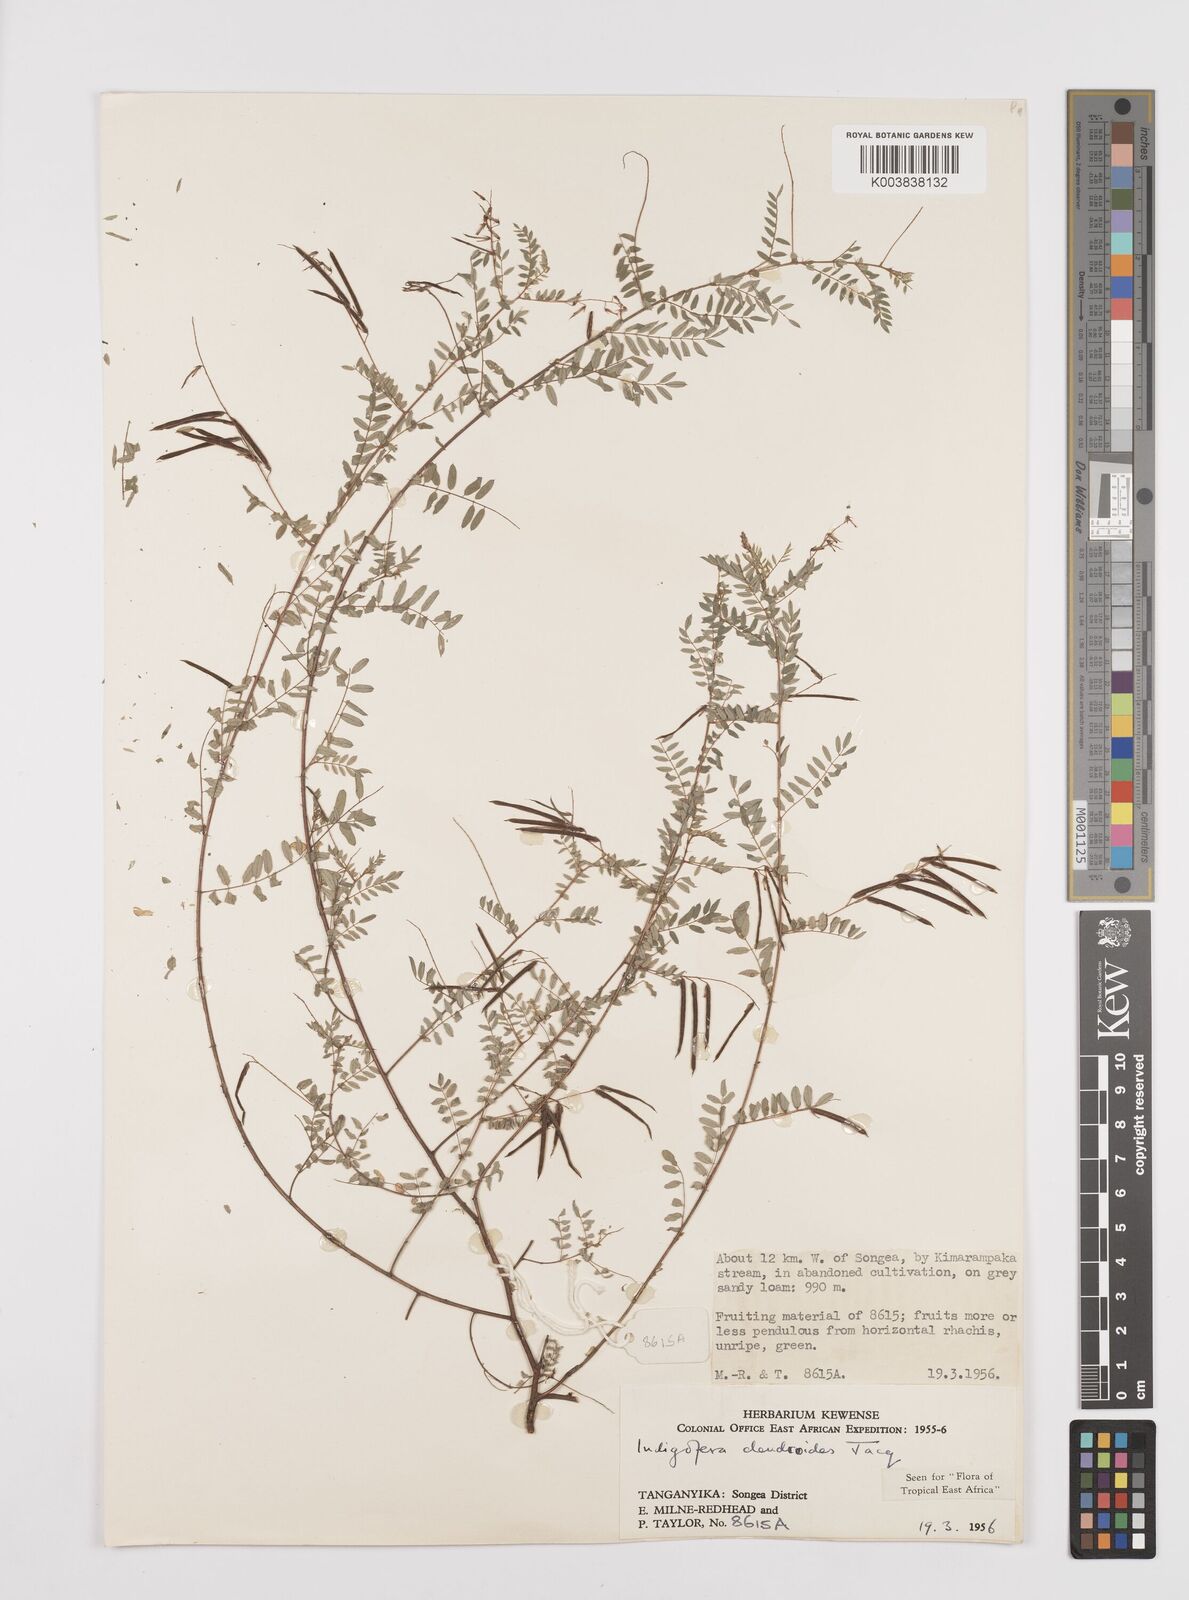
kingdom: Plantae
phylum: Tracheophyta
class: Magnoliopsida
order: Fabales
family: Fabaceae
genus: Indigofera
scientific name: Indigofera dendroides
